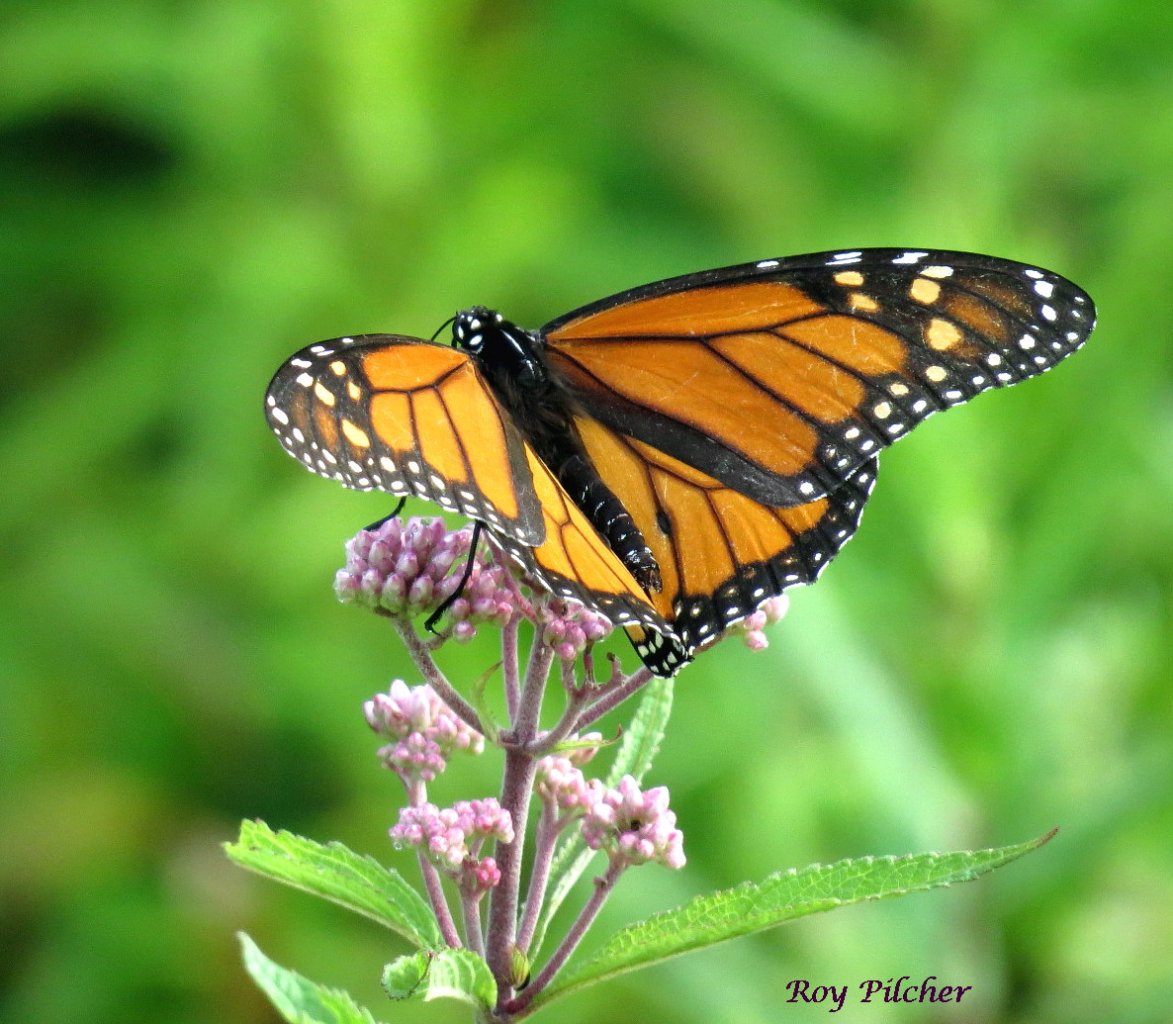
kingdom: Animalia
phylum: Arthropoda
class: Insecta
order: Lepidoptera
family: Nymphalidae
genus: Danaus
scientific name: Danaus plexippus
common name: Monarch
